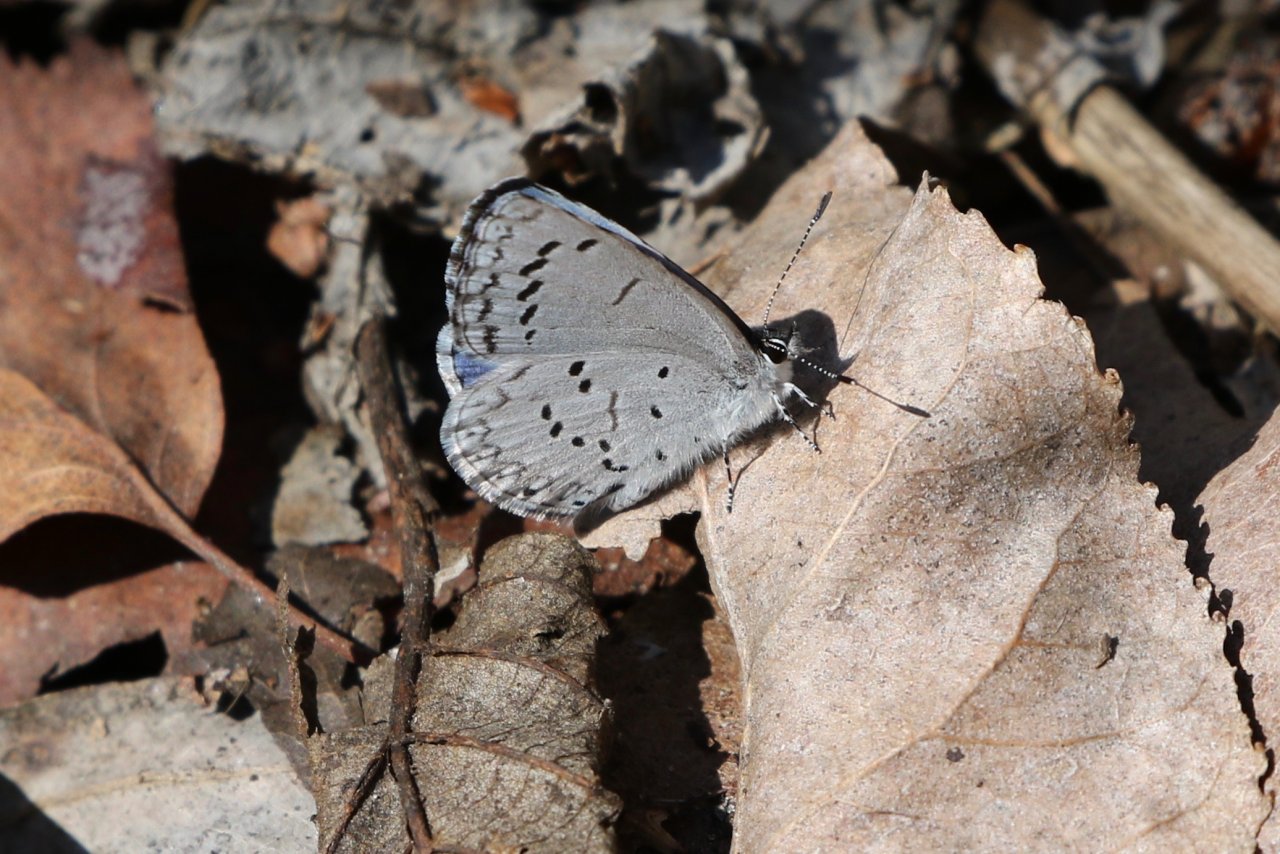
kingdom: Animalia
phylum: Arthropoda
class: Insecta
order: Lepidoptera
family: Lycaenidae
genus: Celastrina
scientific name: Celastrina lucia
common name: Northern Spring Azure
